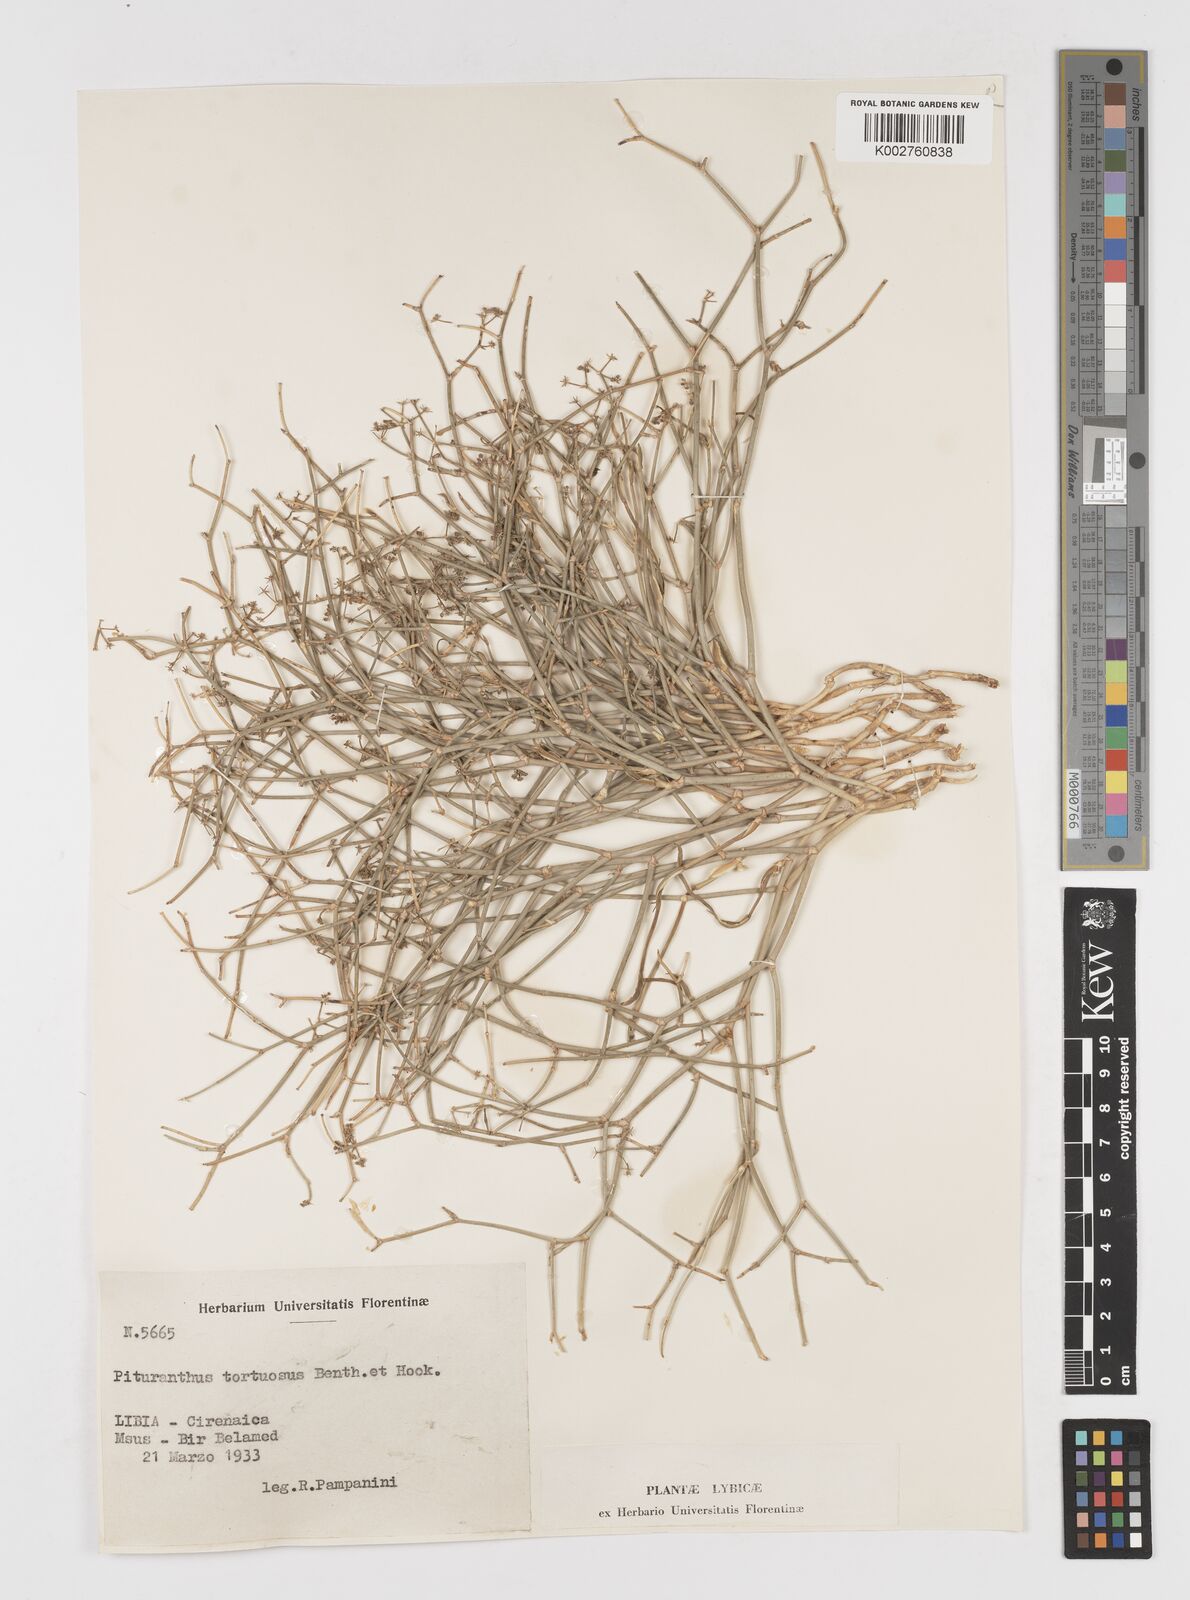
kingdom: Plantae
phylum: Tracheophyta
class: Magnoliopsida
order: Apiales
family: Apiaceae
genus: Deverra
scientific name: Deverra tortuosa
